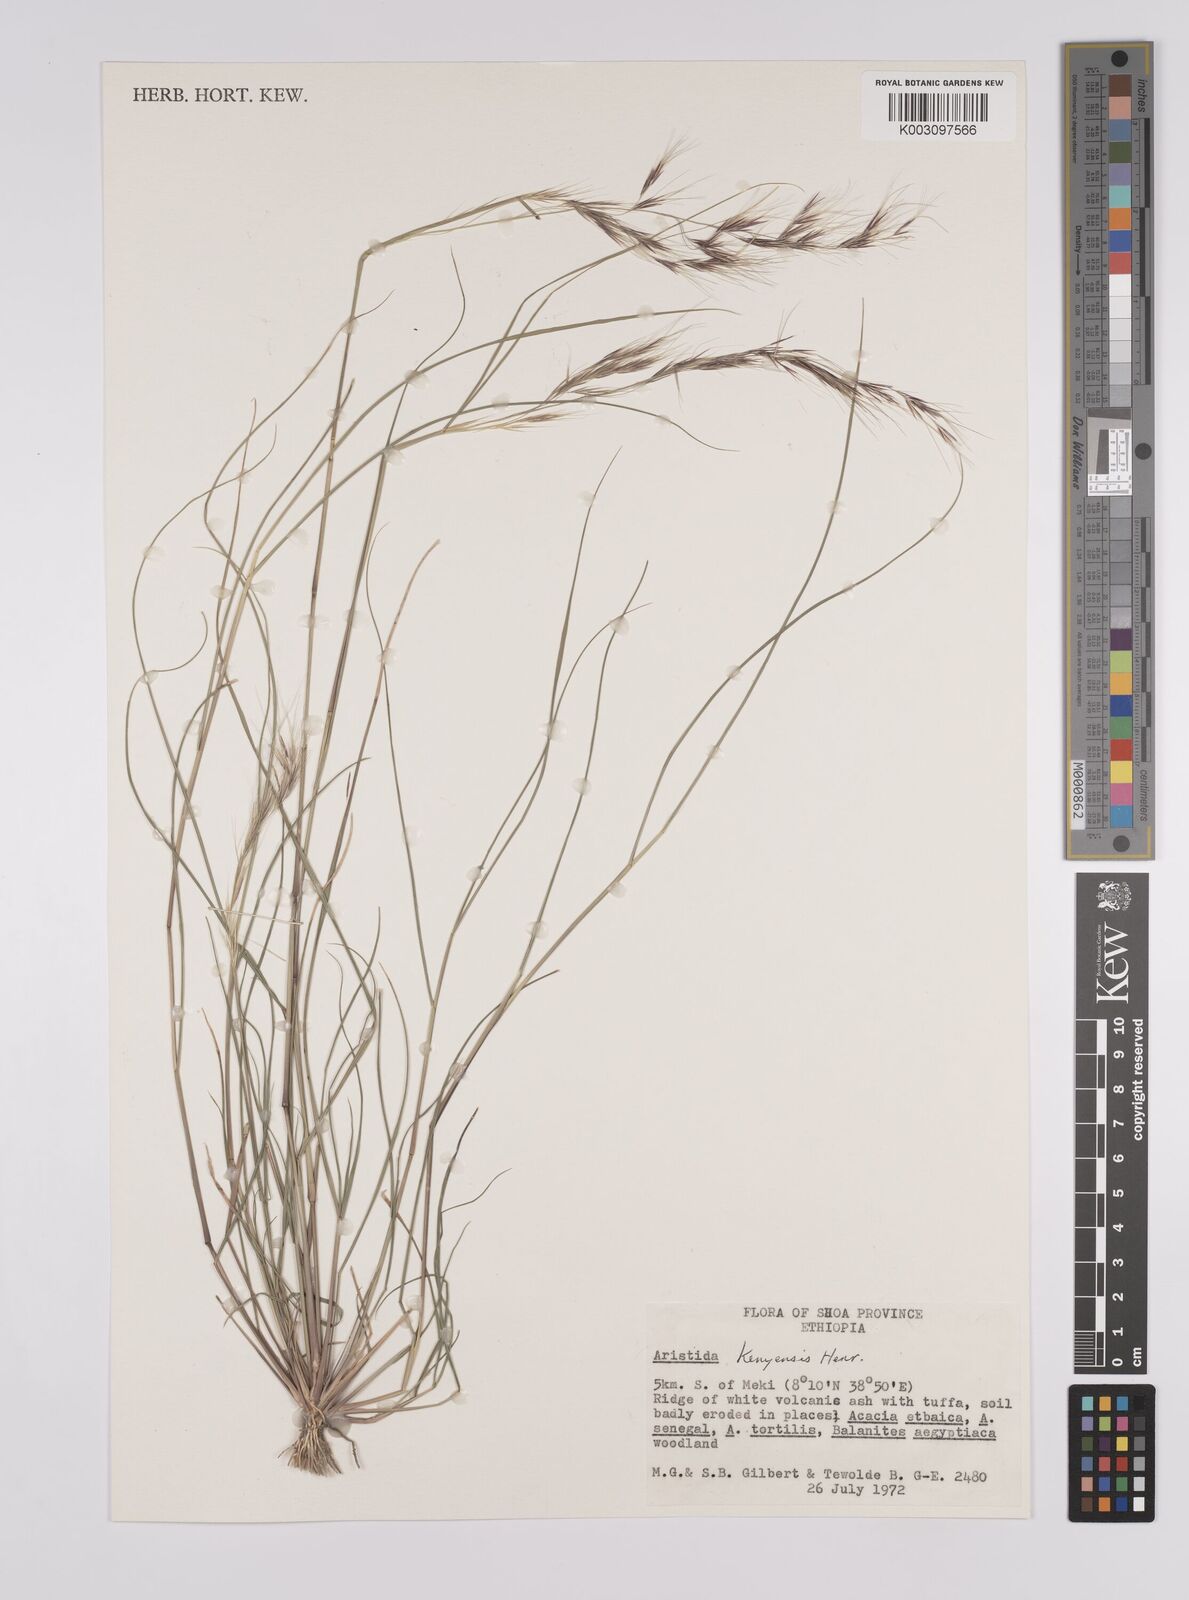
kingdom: Plantae
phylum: Tracheophyta
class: Liliopsida
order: Poales
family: Poaceae
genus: Aristida
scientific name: Aristida kenyensis
